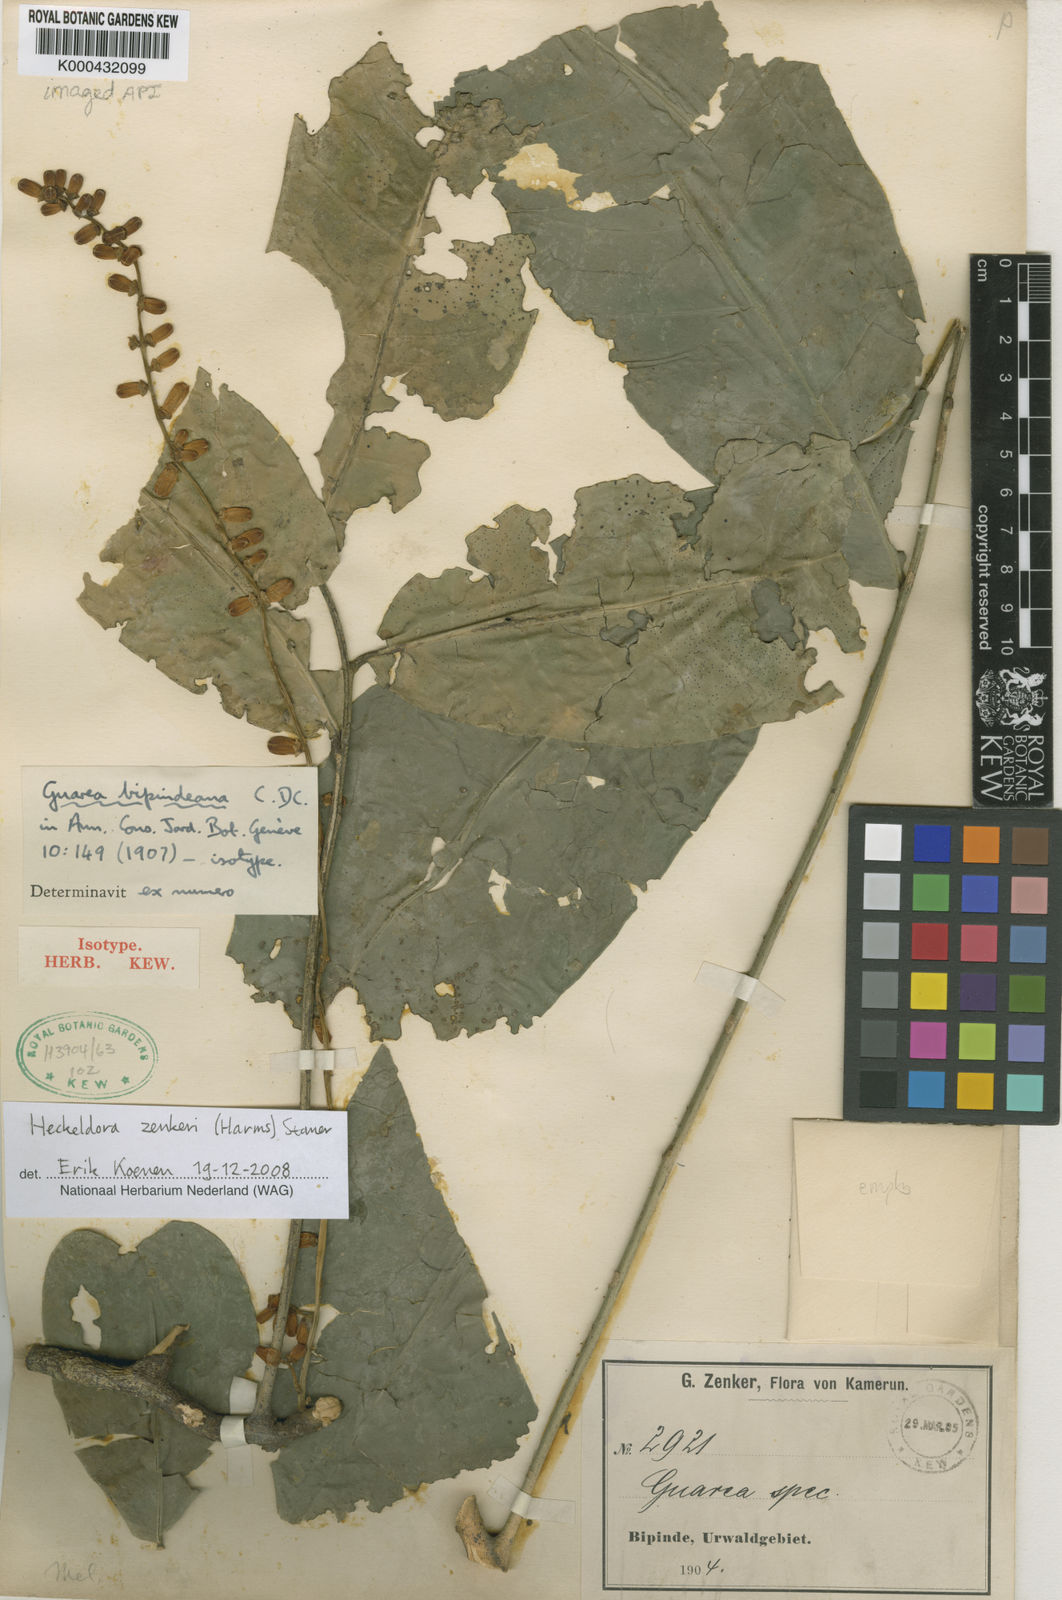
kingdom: Plantae
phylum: Tracheophyta
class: Magnoliopsida
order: Sapindales
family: Meliaceae
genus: Heckeldora
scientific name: Heckeldora zenkeri
